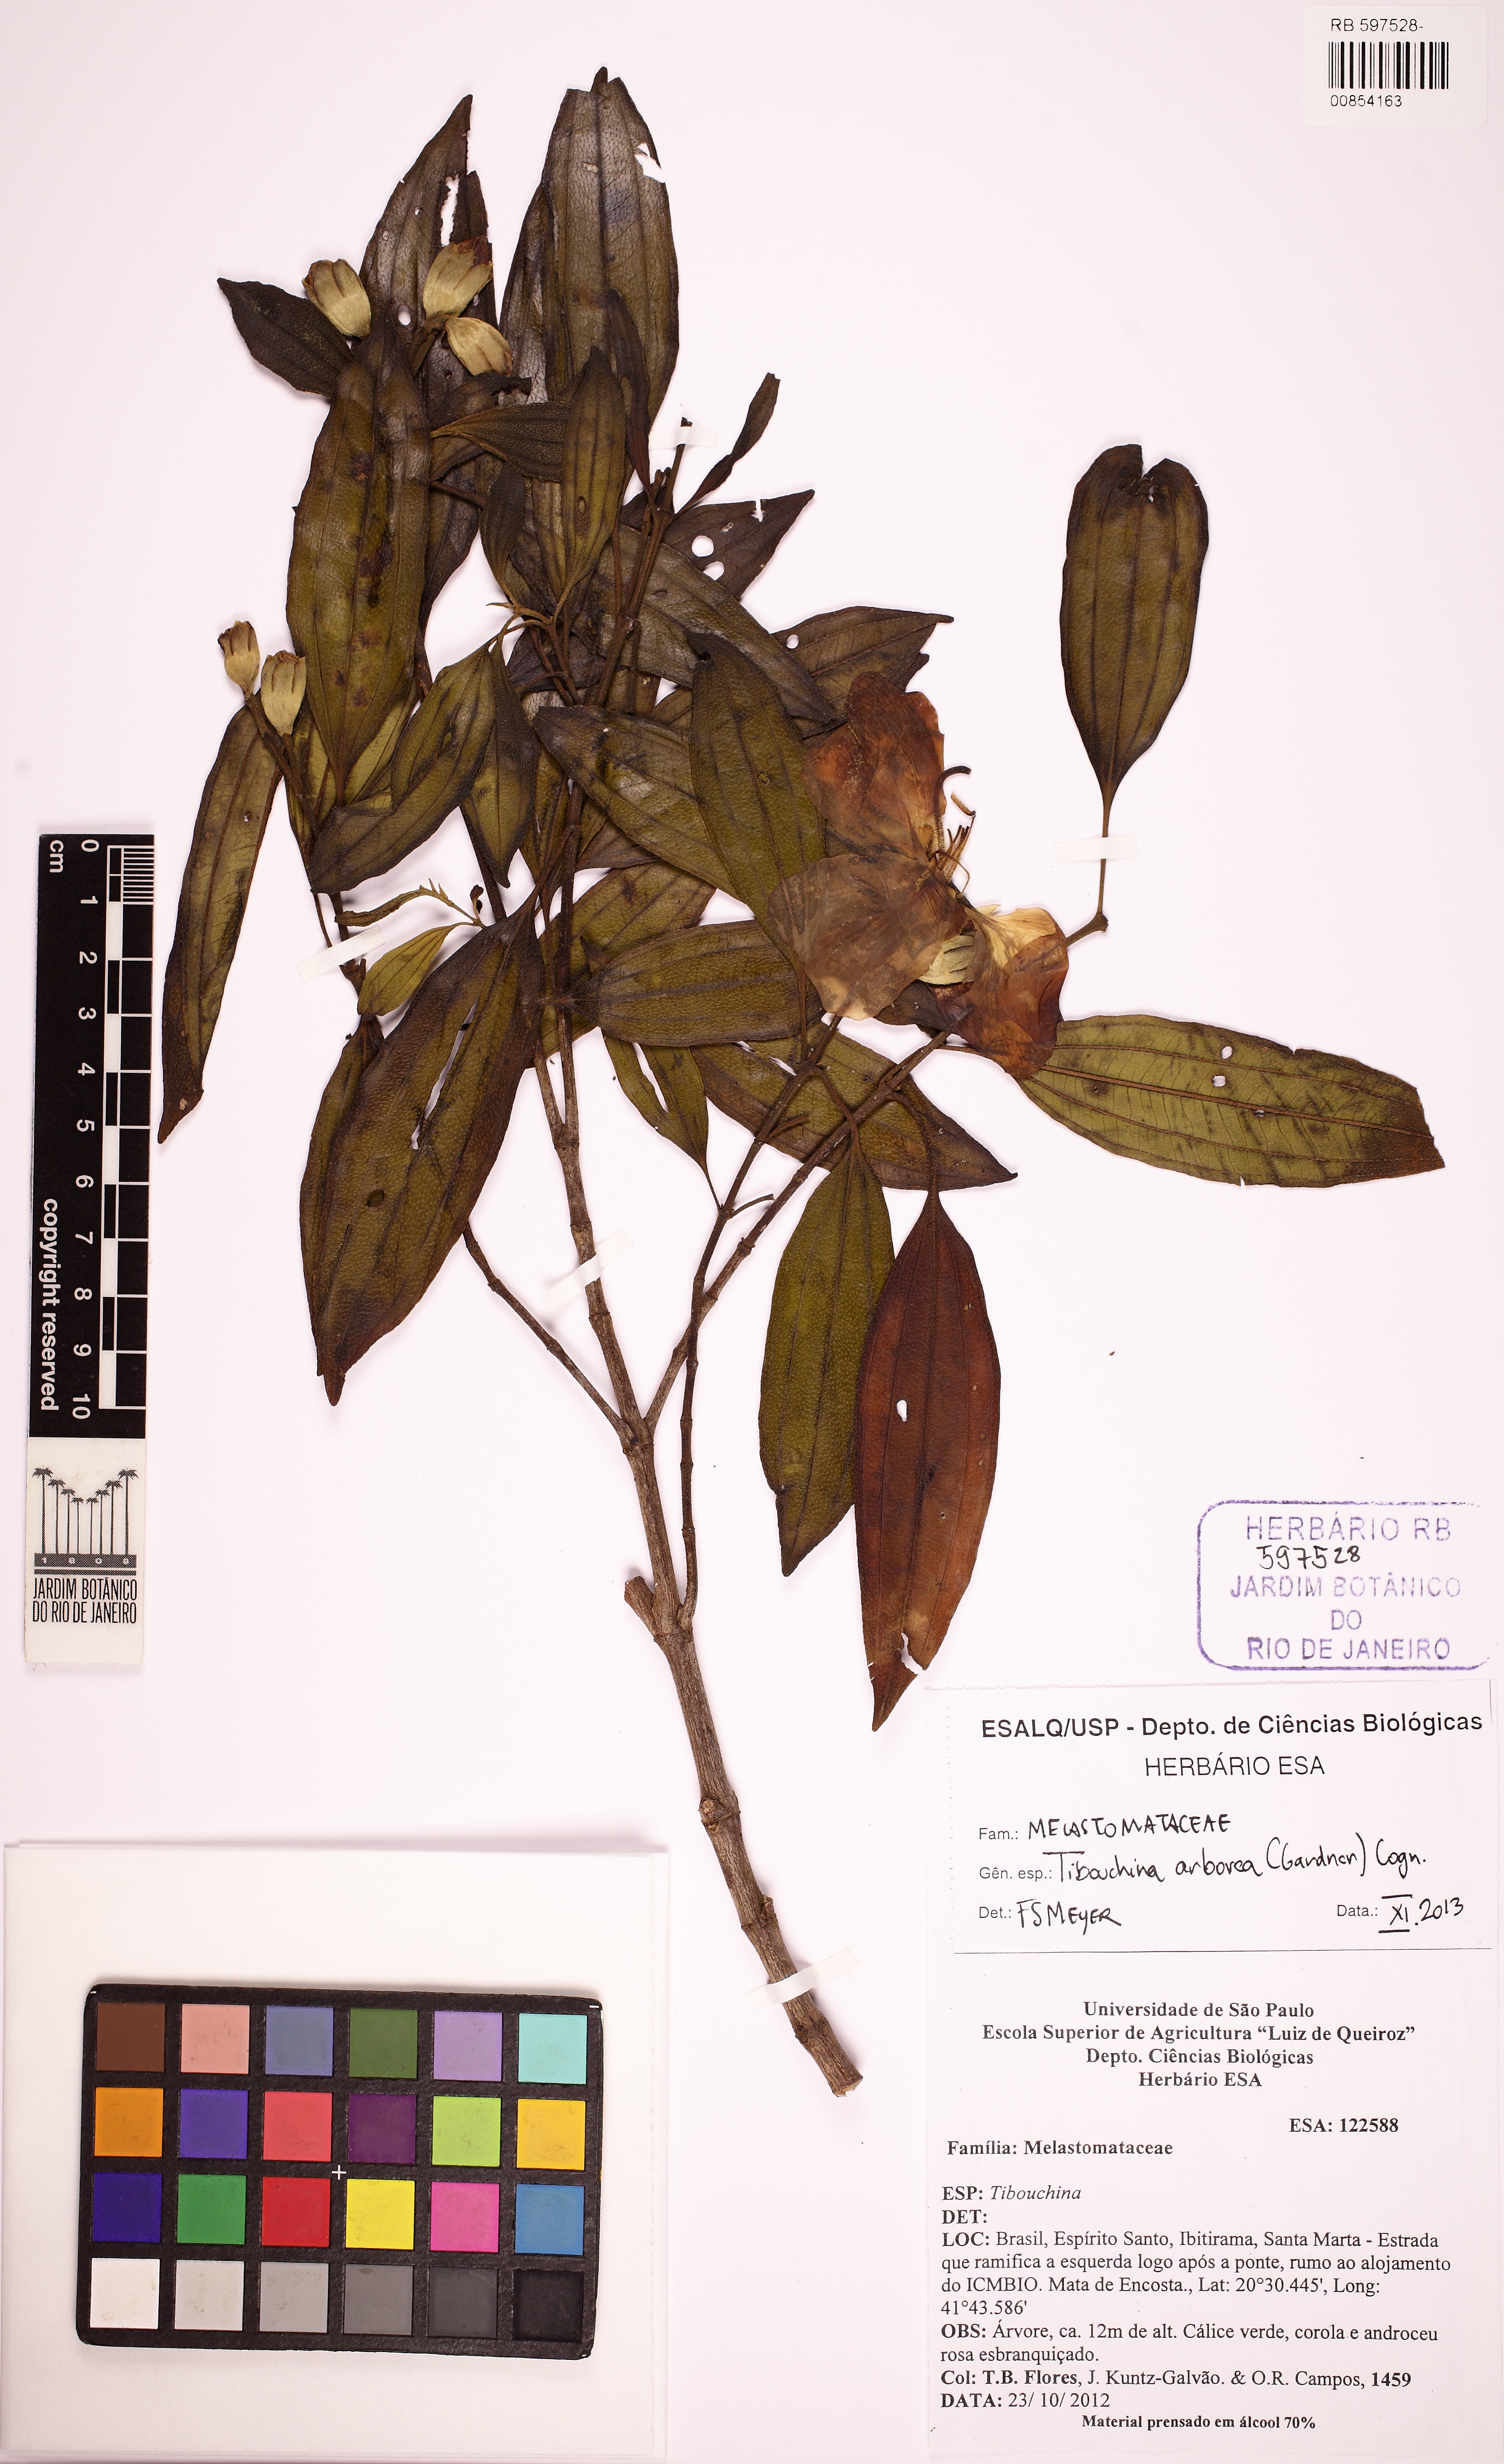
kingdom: Plantae
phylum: Tracheophyta
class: Magnoliopsida
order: Myrtales
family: Melastomataceae
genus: Pleroma
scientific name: Pleroma arboreum
